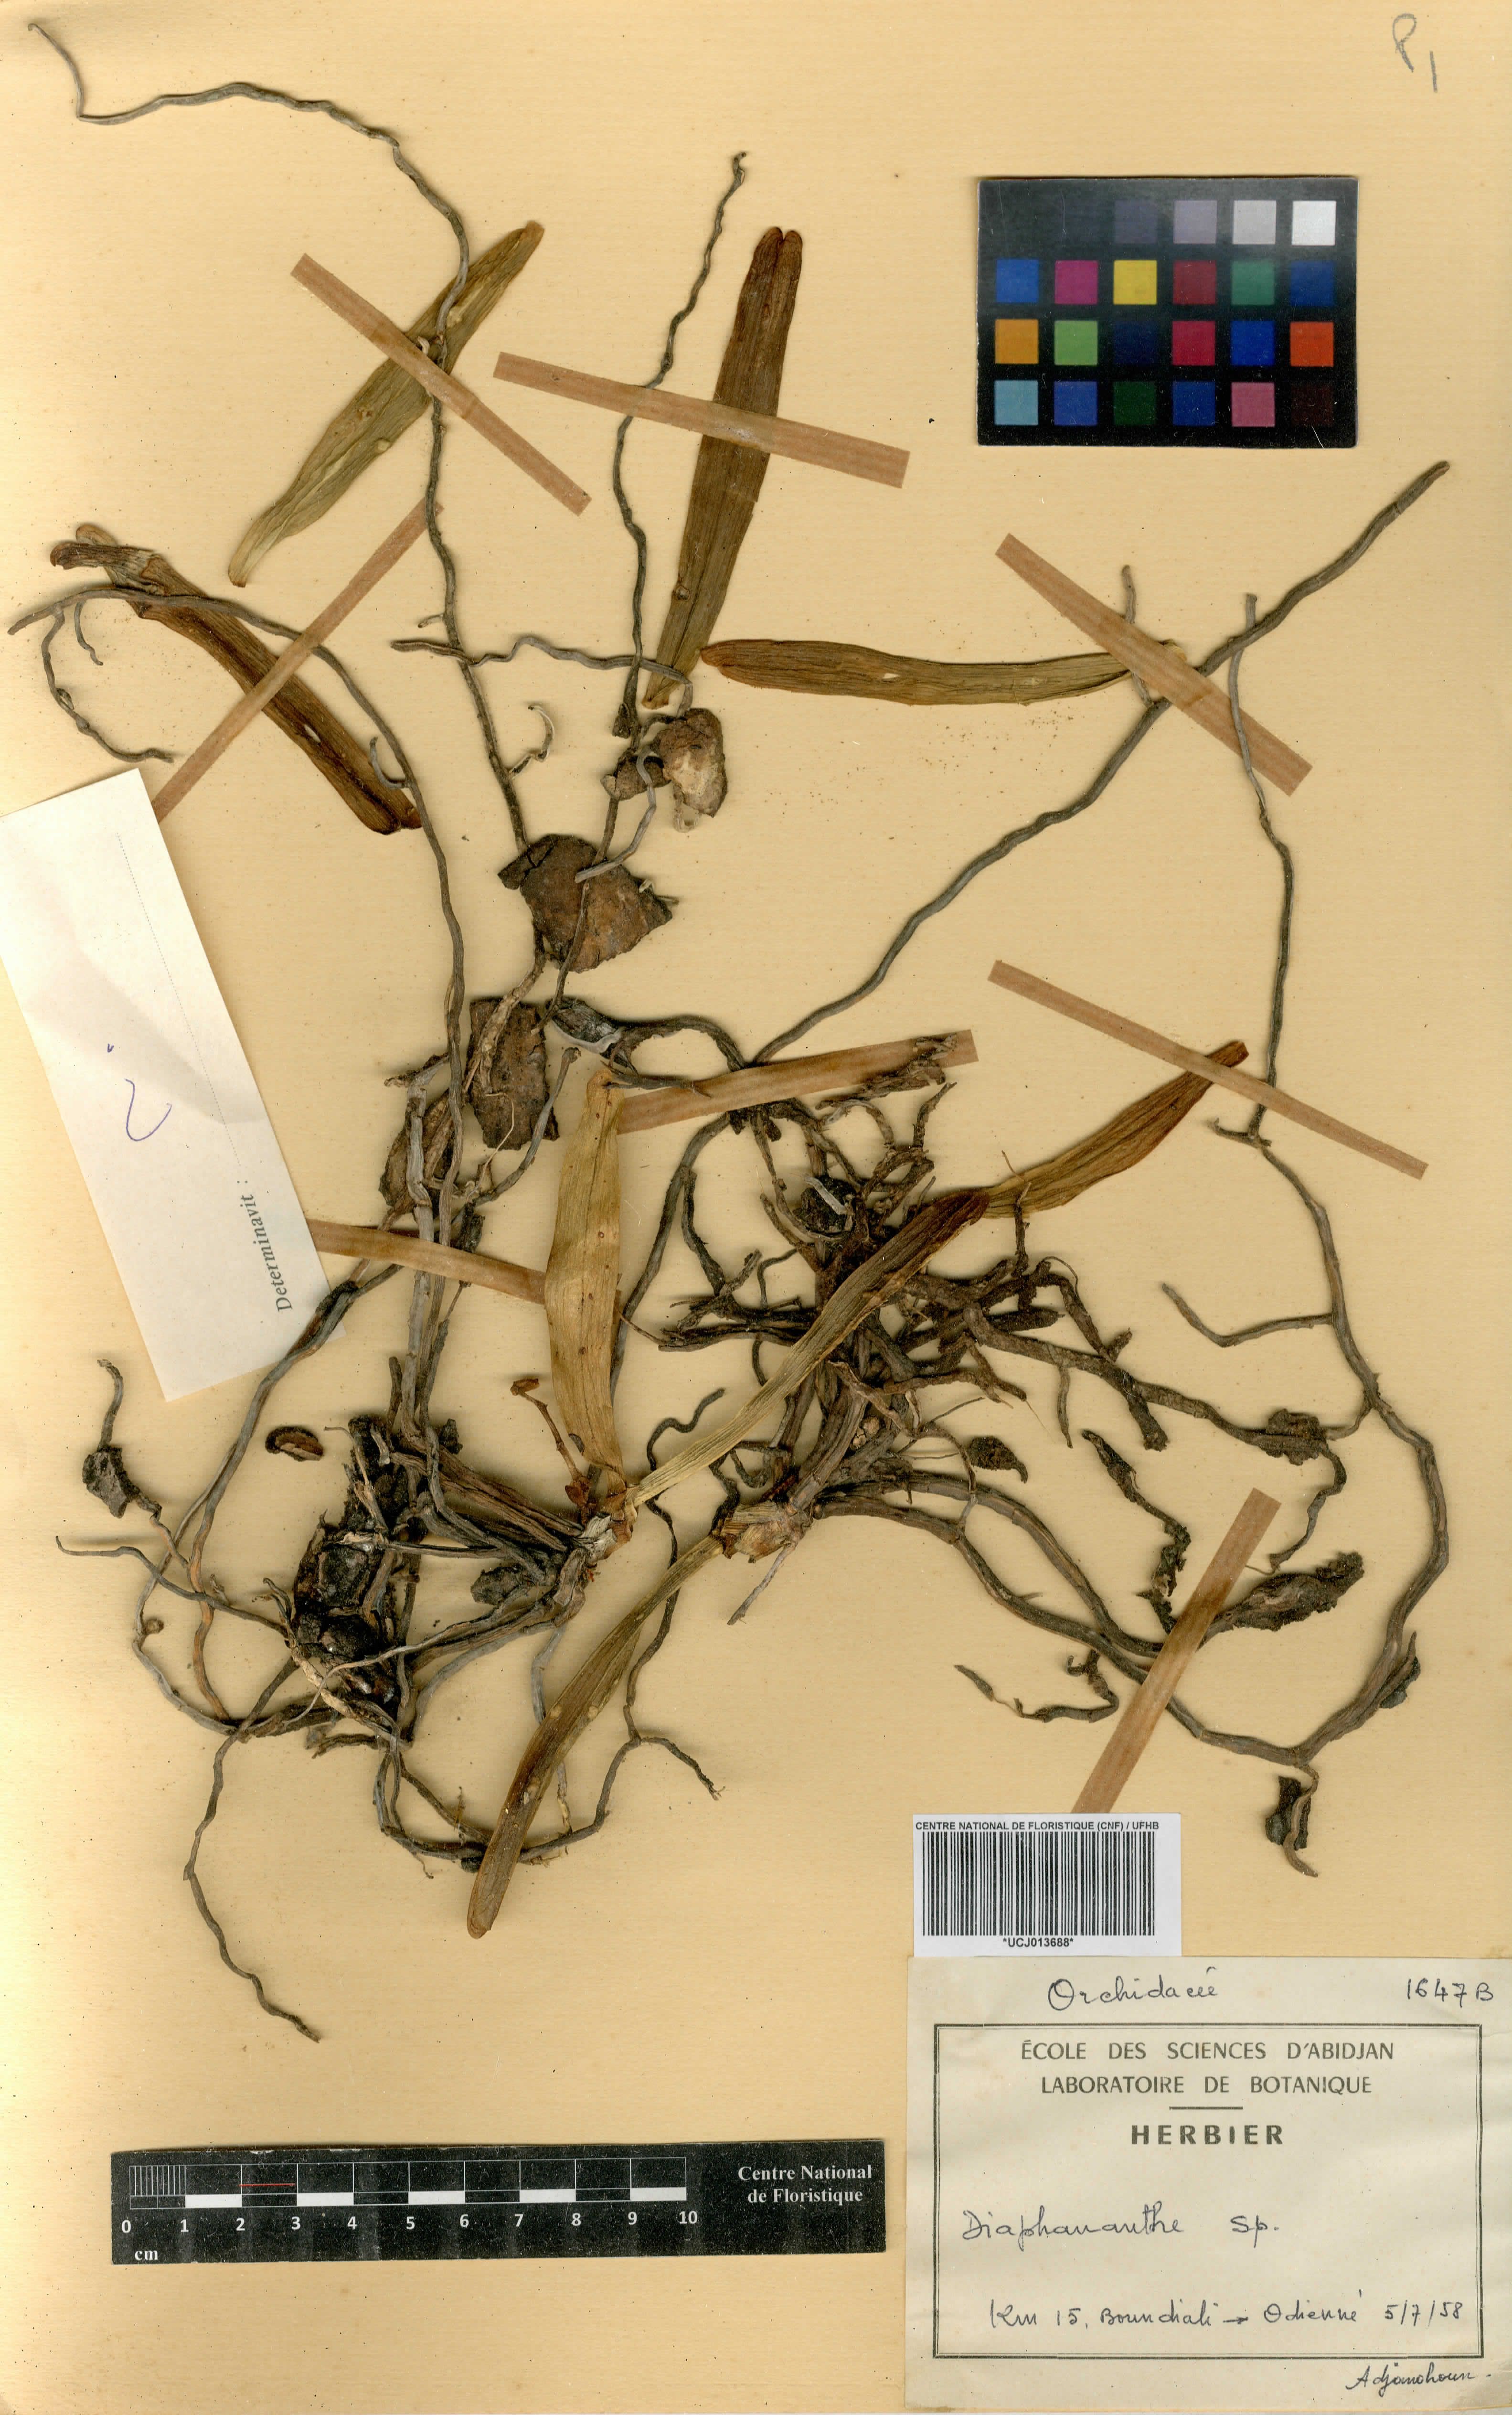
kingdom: Plantae
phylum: Tracheophyta
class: Liliopsida
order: Asparagales
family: Orchidaceae
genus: Diaphananthe
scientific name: Diaphananthe
